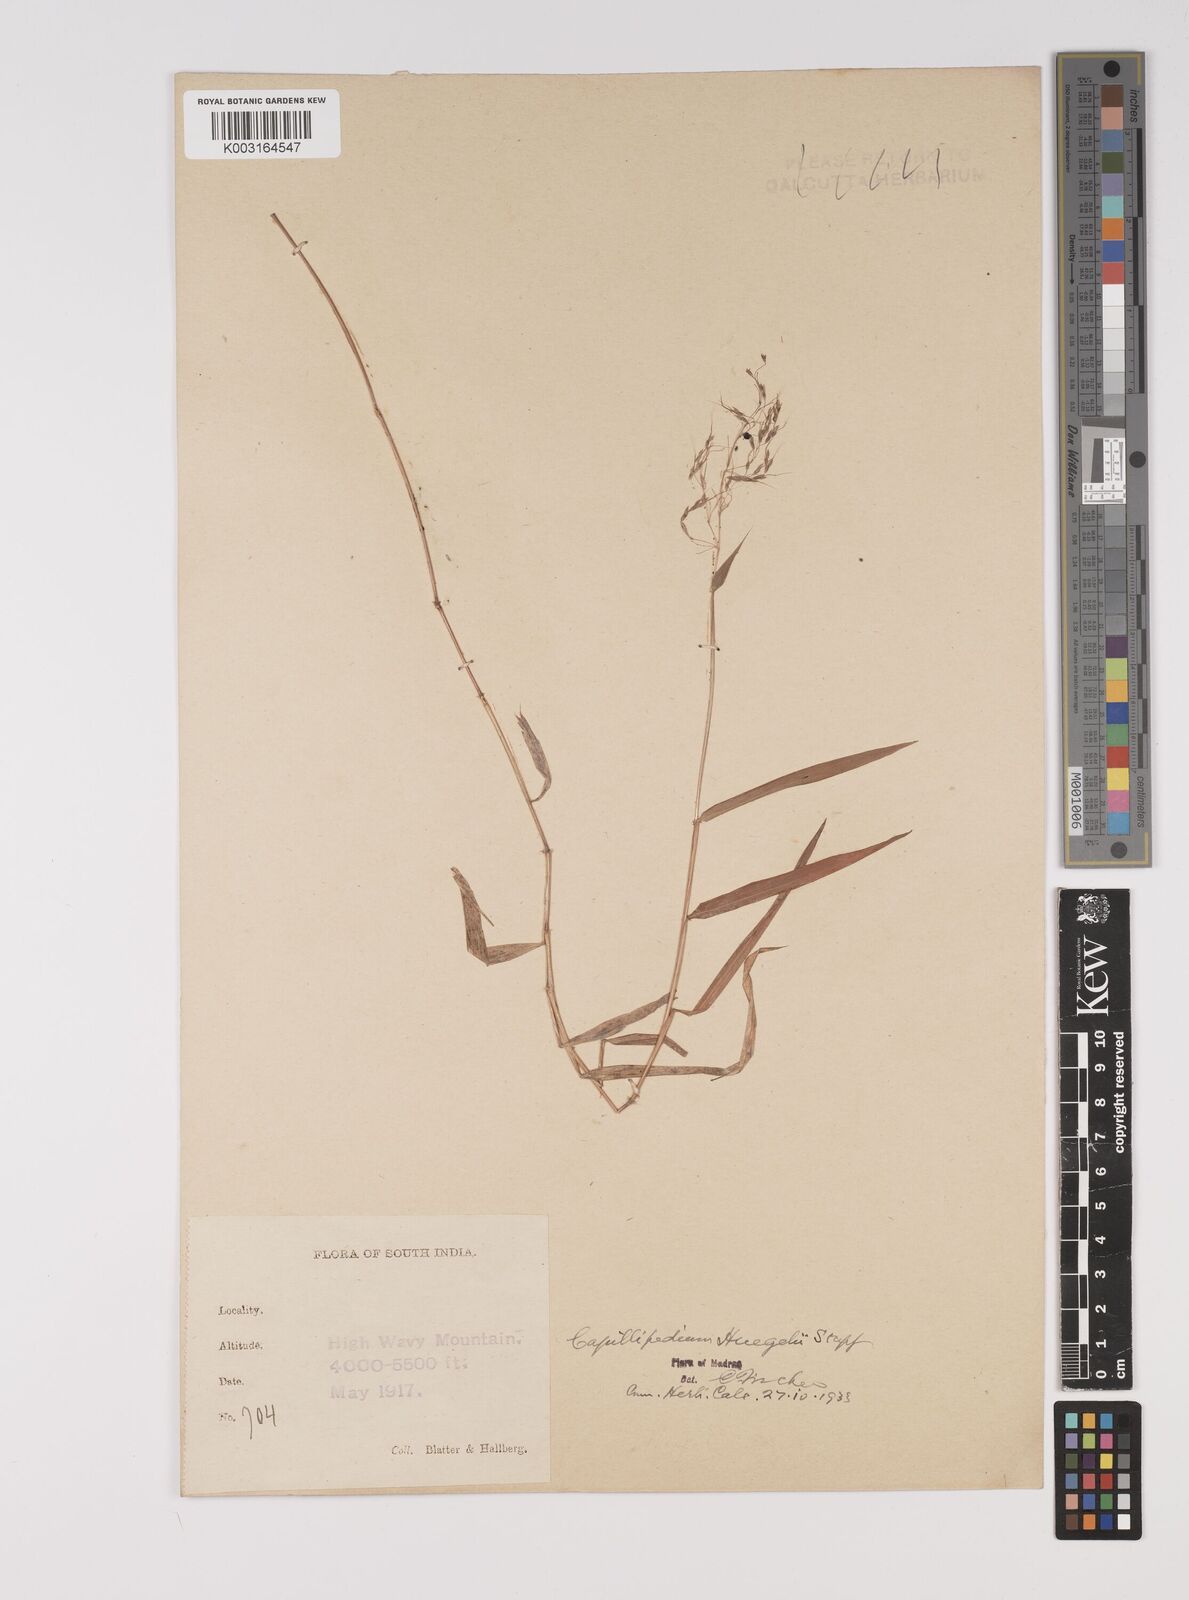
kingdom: Plantae
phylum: Tracheophyta
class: Liliopsida
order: Poales
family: Poaceae
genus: Capillipedium
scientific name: Capillipedium huegelii
